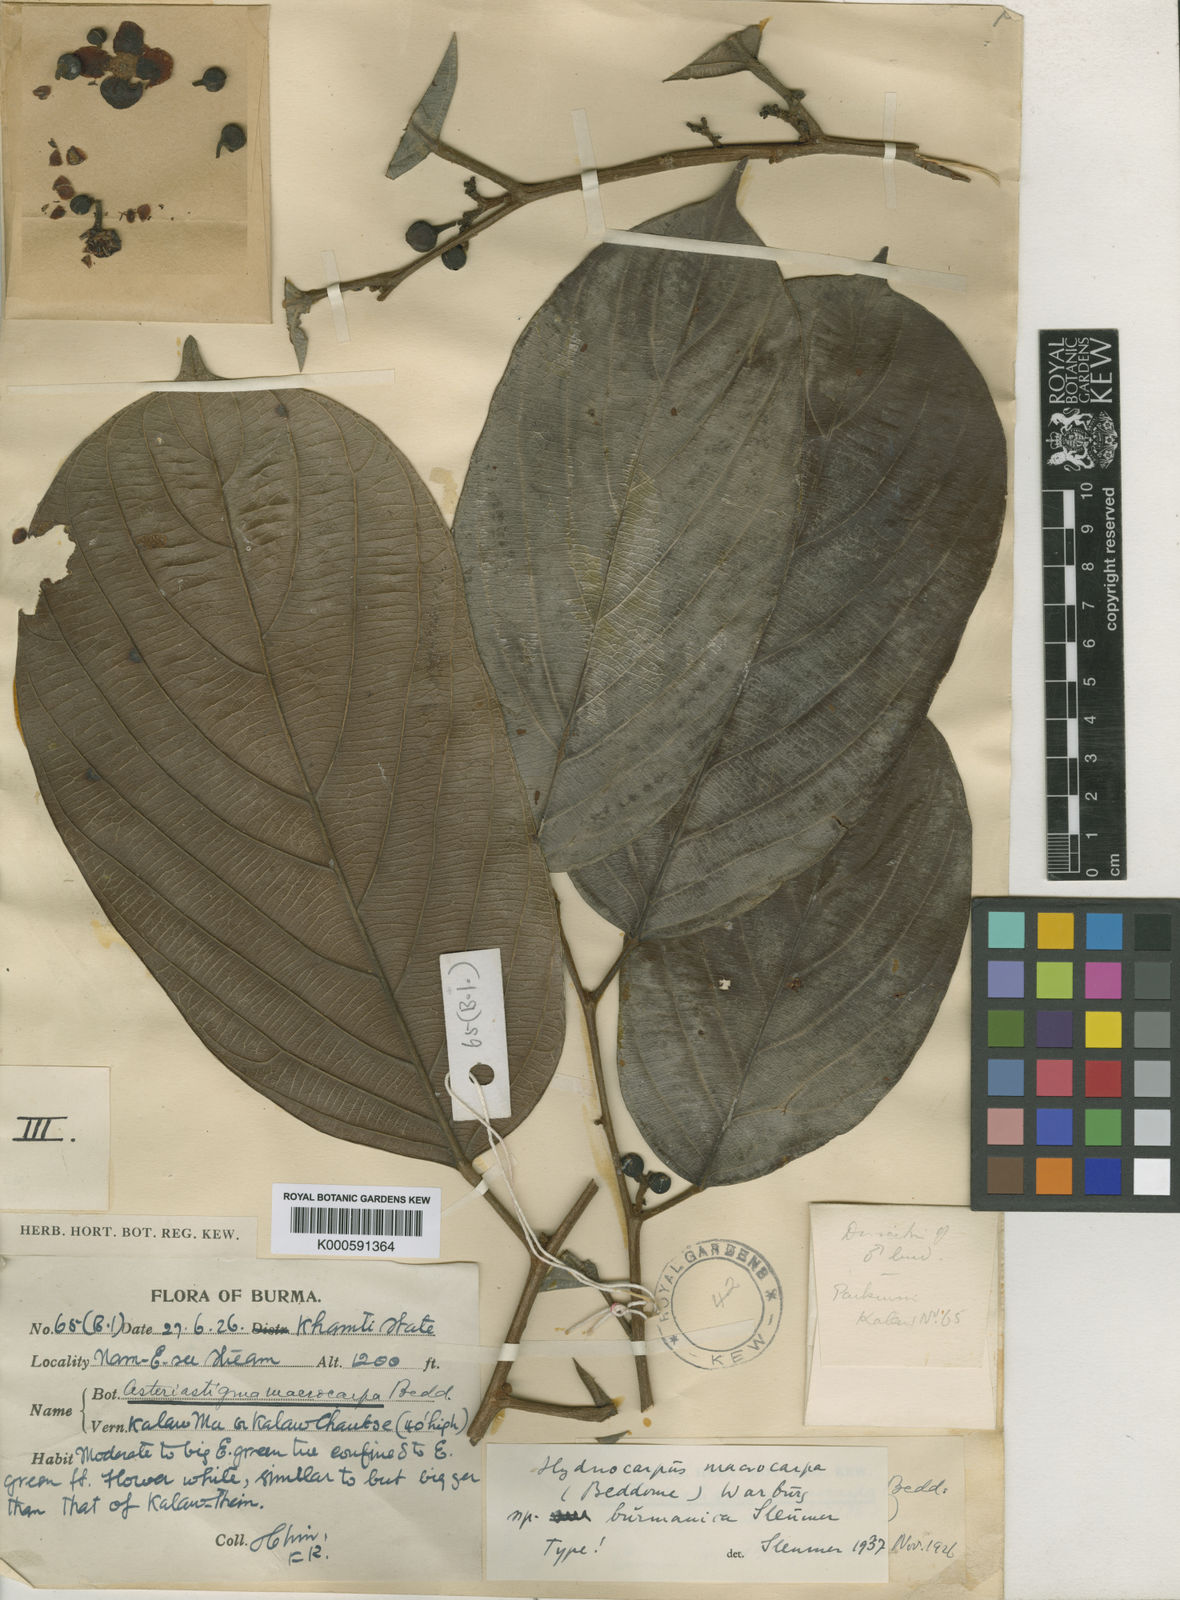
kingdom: Plantae
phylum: Tracheophyta
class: Magnoliopsida
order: Malpighiales
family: Achariaceae
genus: Hydnocarpus
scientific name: Hydnocarpus macrocarpus
